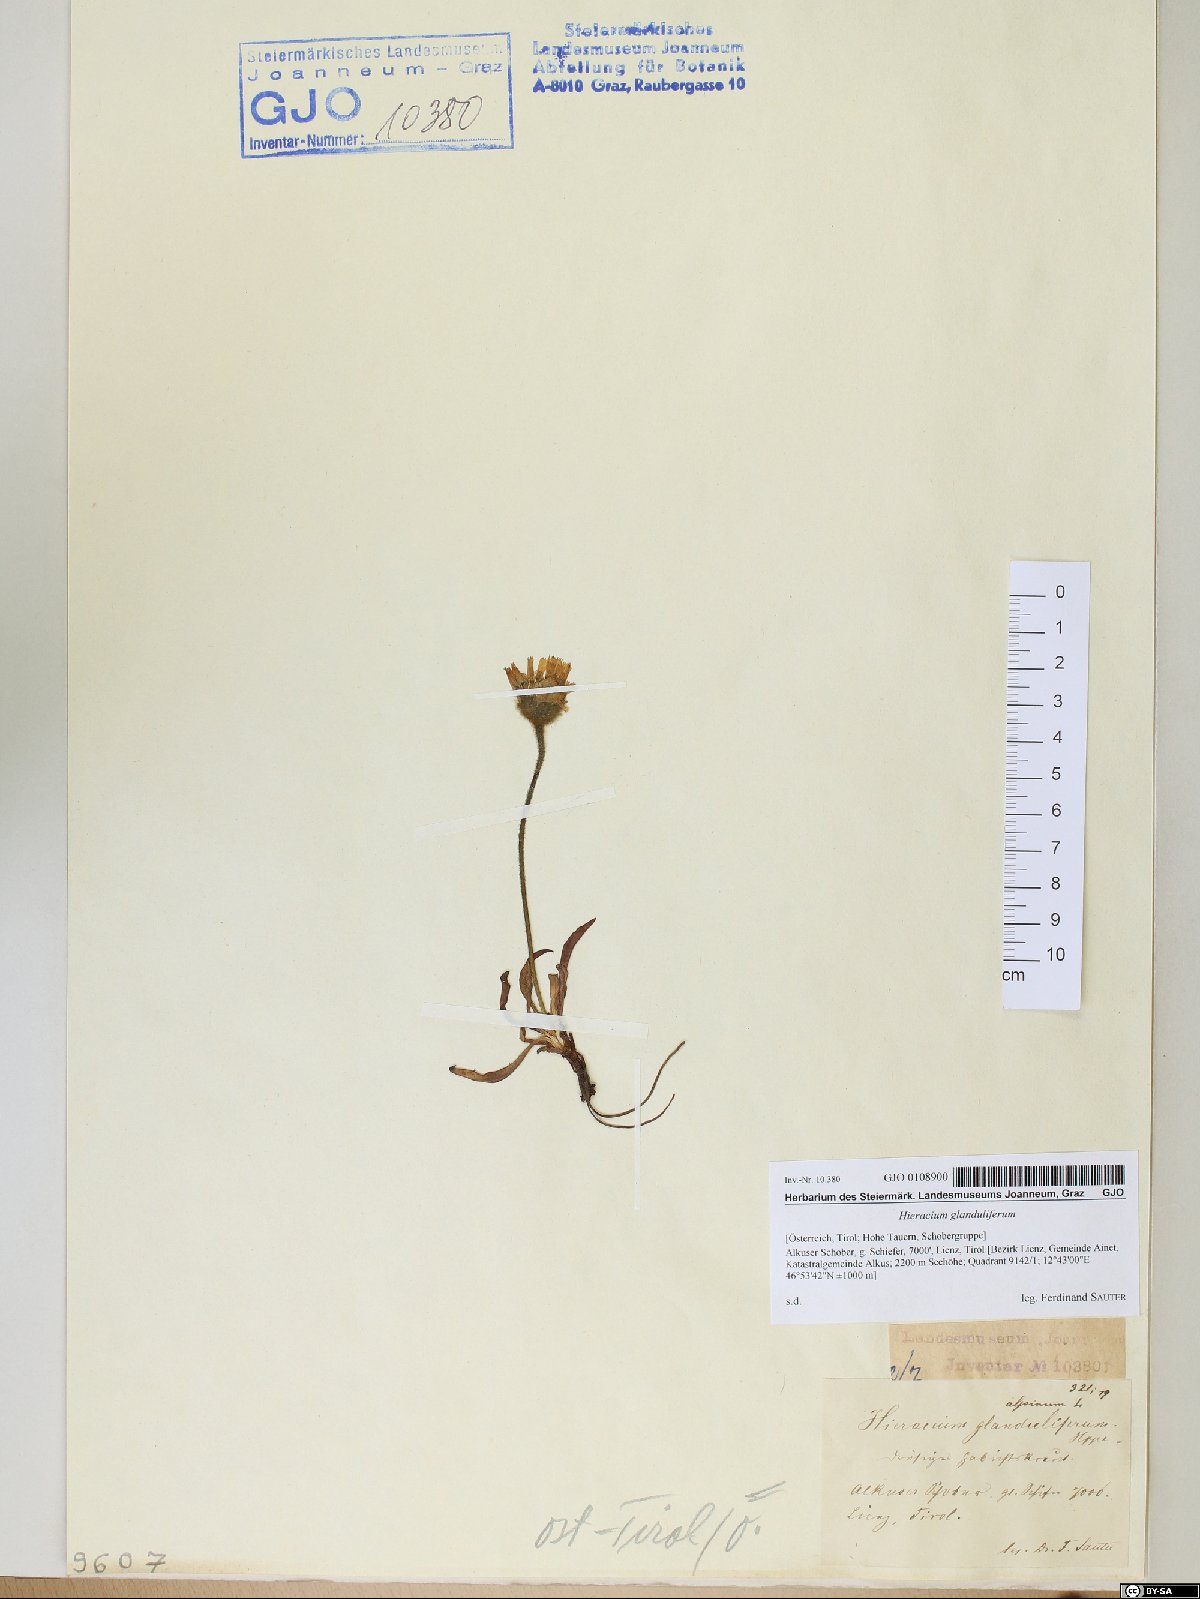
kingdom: Plantae
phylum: Tracheophyta
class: Magnoliopsida
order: Asterales
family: Asteraceae
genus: Hieracium
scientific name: Hieracium piliferum
